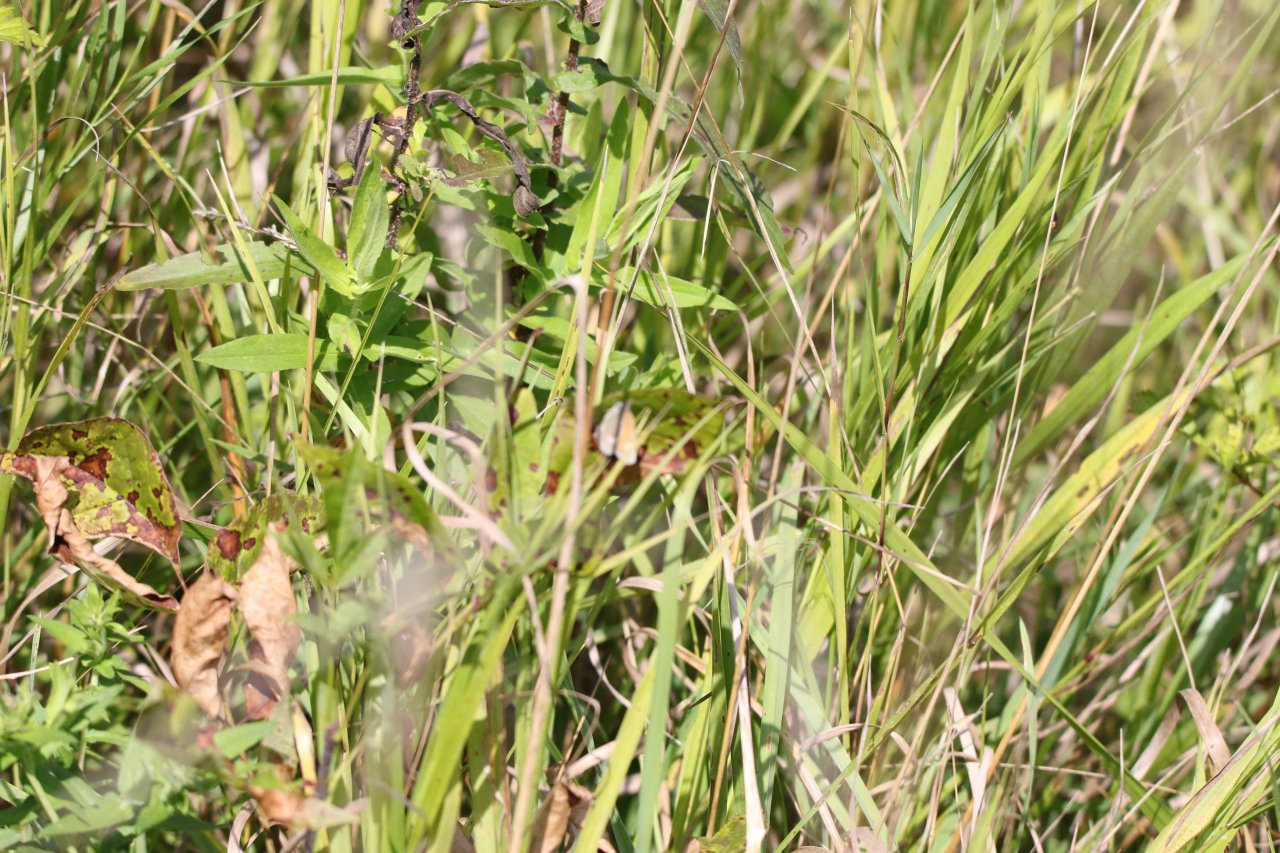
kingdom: Animalia
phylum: Arthropoda
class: Insecta
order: Lepidoptera
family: Nymphalidae
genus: Coenonympha
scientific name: Coenonympha tullia
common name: Large Heath
